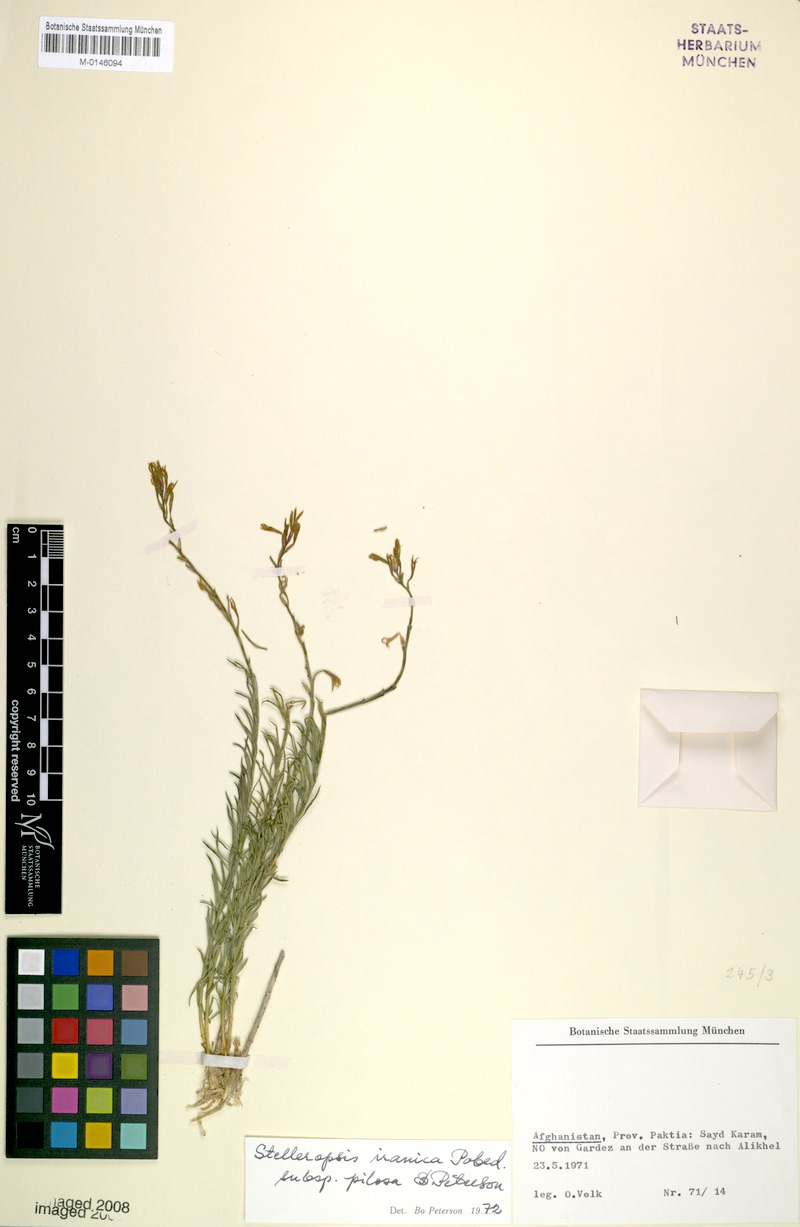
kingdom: Plantae
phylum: Tracheophyta
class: Magnoliopsida
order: Malvales
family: Thymelaeaceae
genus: Diarthron
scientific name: Diarthron iranicum
